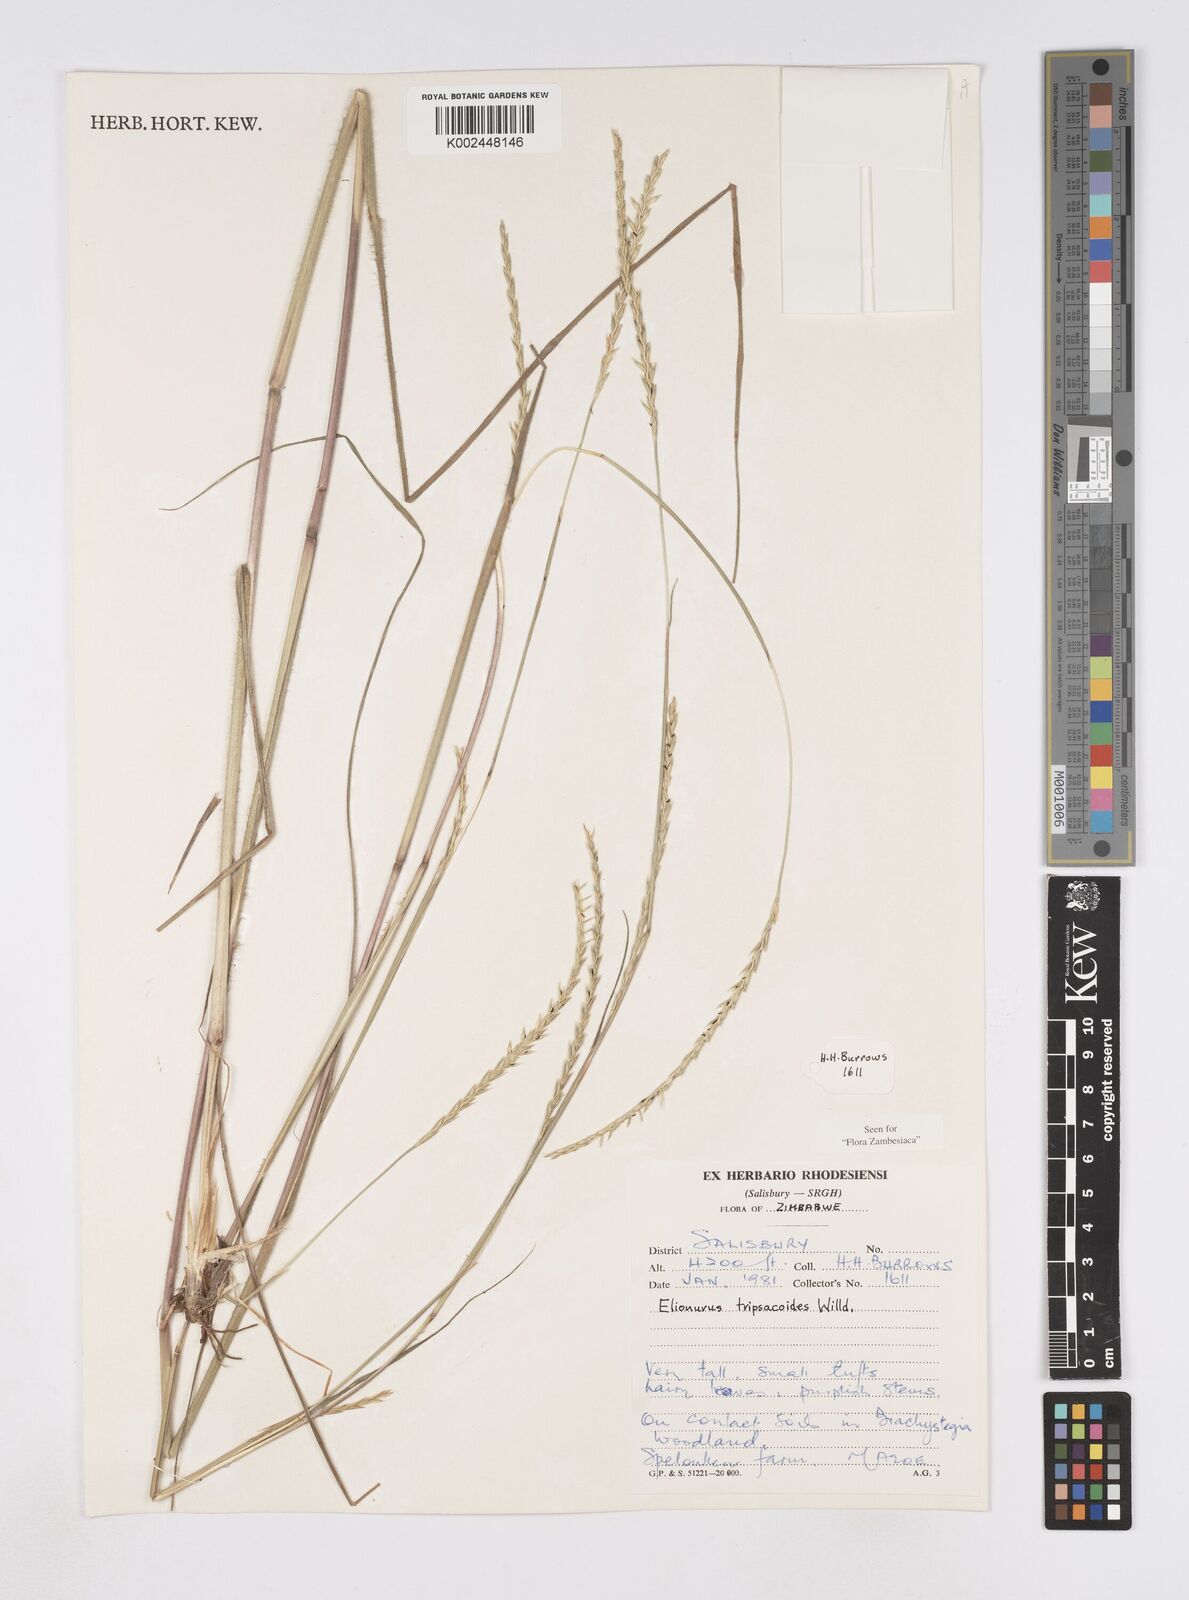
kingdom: Plantae
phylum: Tracheophyta
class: Liliopsida
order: Poales
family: Poaceae
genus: Elionurus
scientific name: Elionurus tripsacoides
